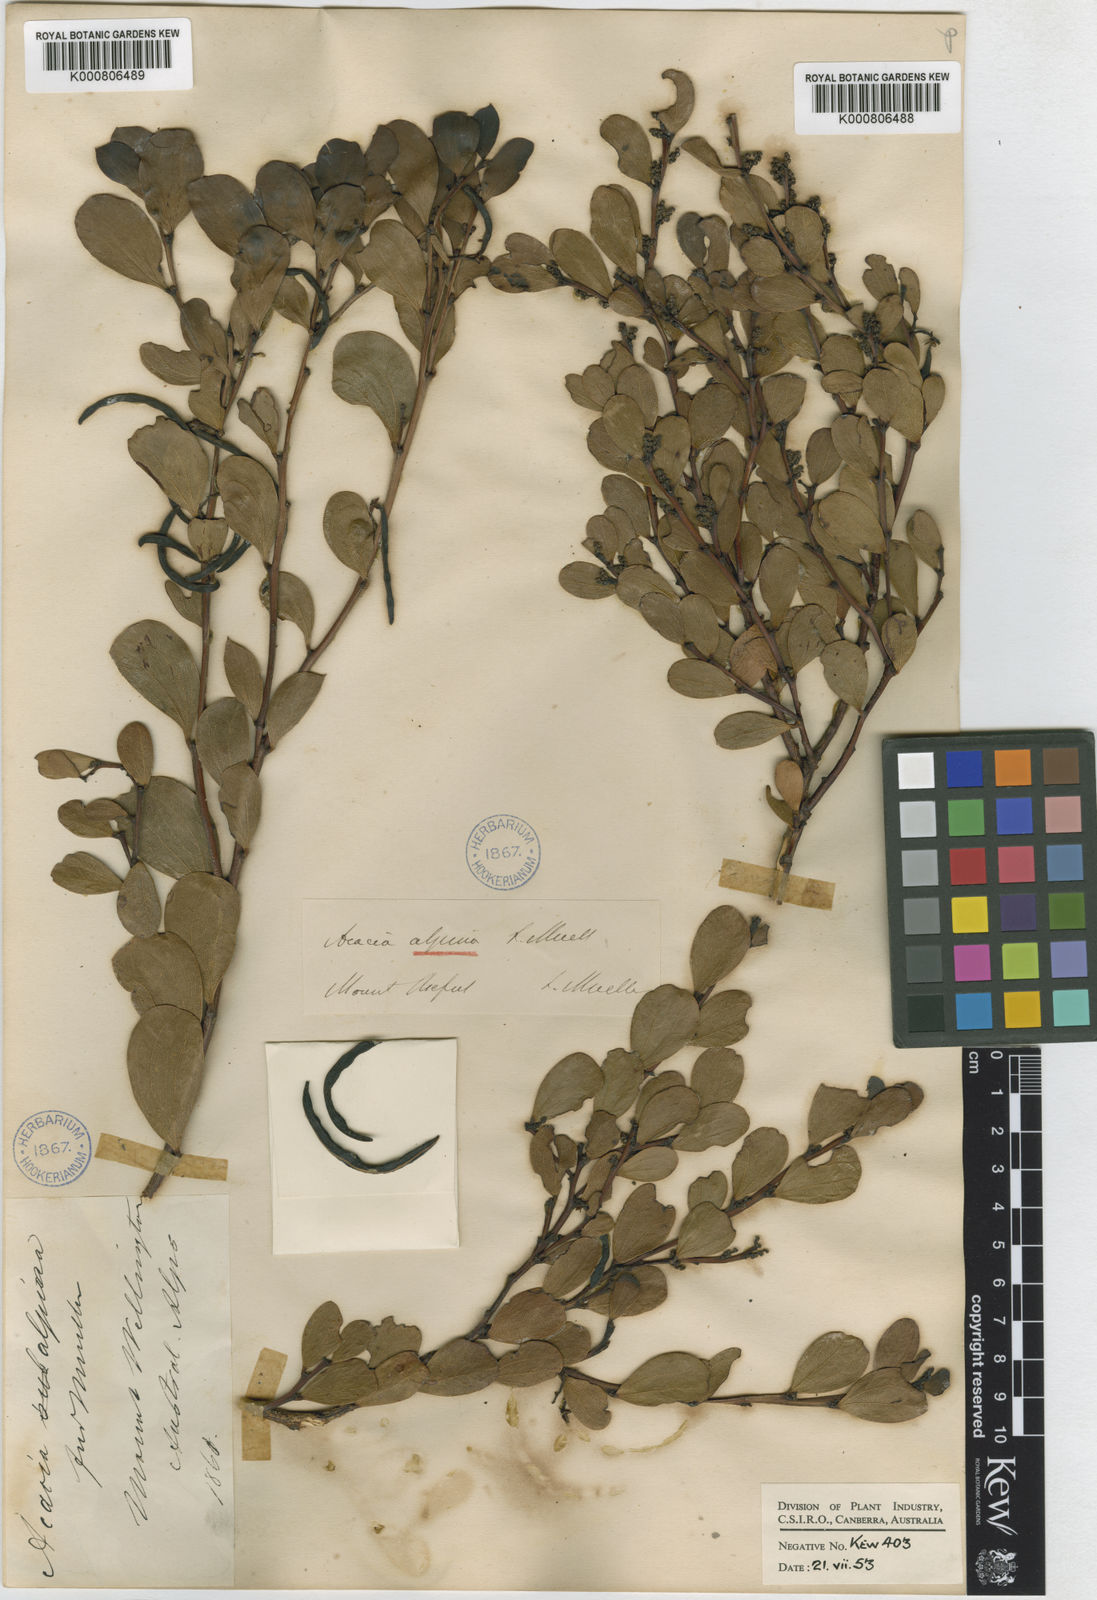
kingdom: Plantae
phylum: Tracheophyta
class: Magnoliopsida
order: Fabales
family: Fabaceae
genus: Acacia
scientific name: Acacia alpina
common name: Alpine wattle
